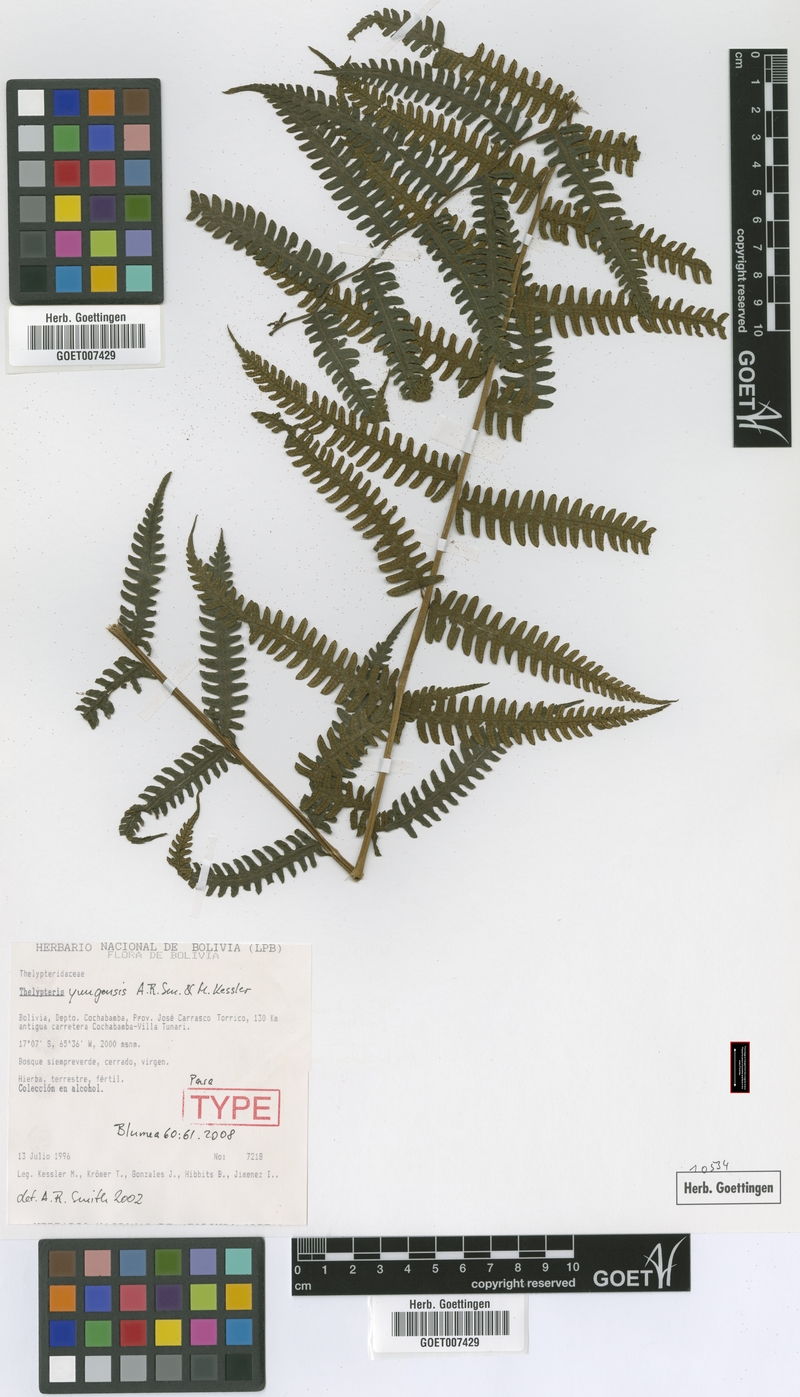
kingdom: Plantae
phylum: Tracheophyta
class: Polypodiopsida
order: Polypodiales
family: Thelypteridaceae
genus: Amauropelta
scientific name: Amauropelta yungensis
